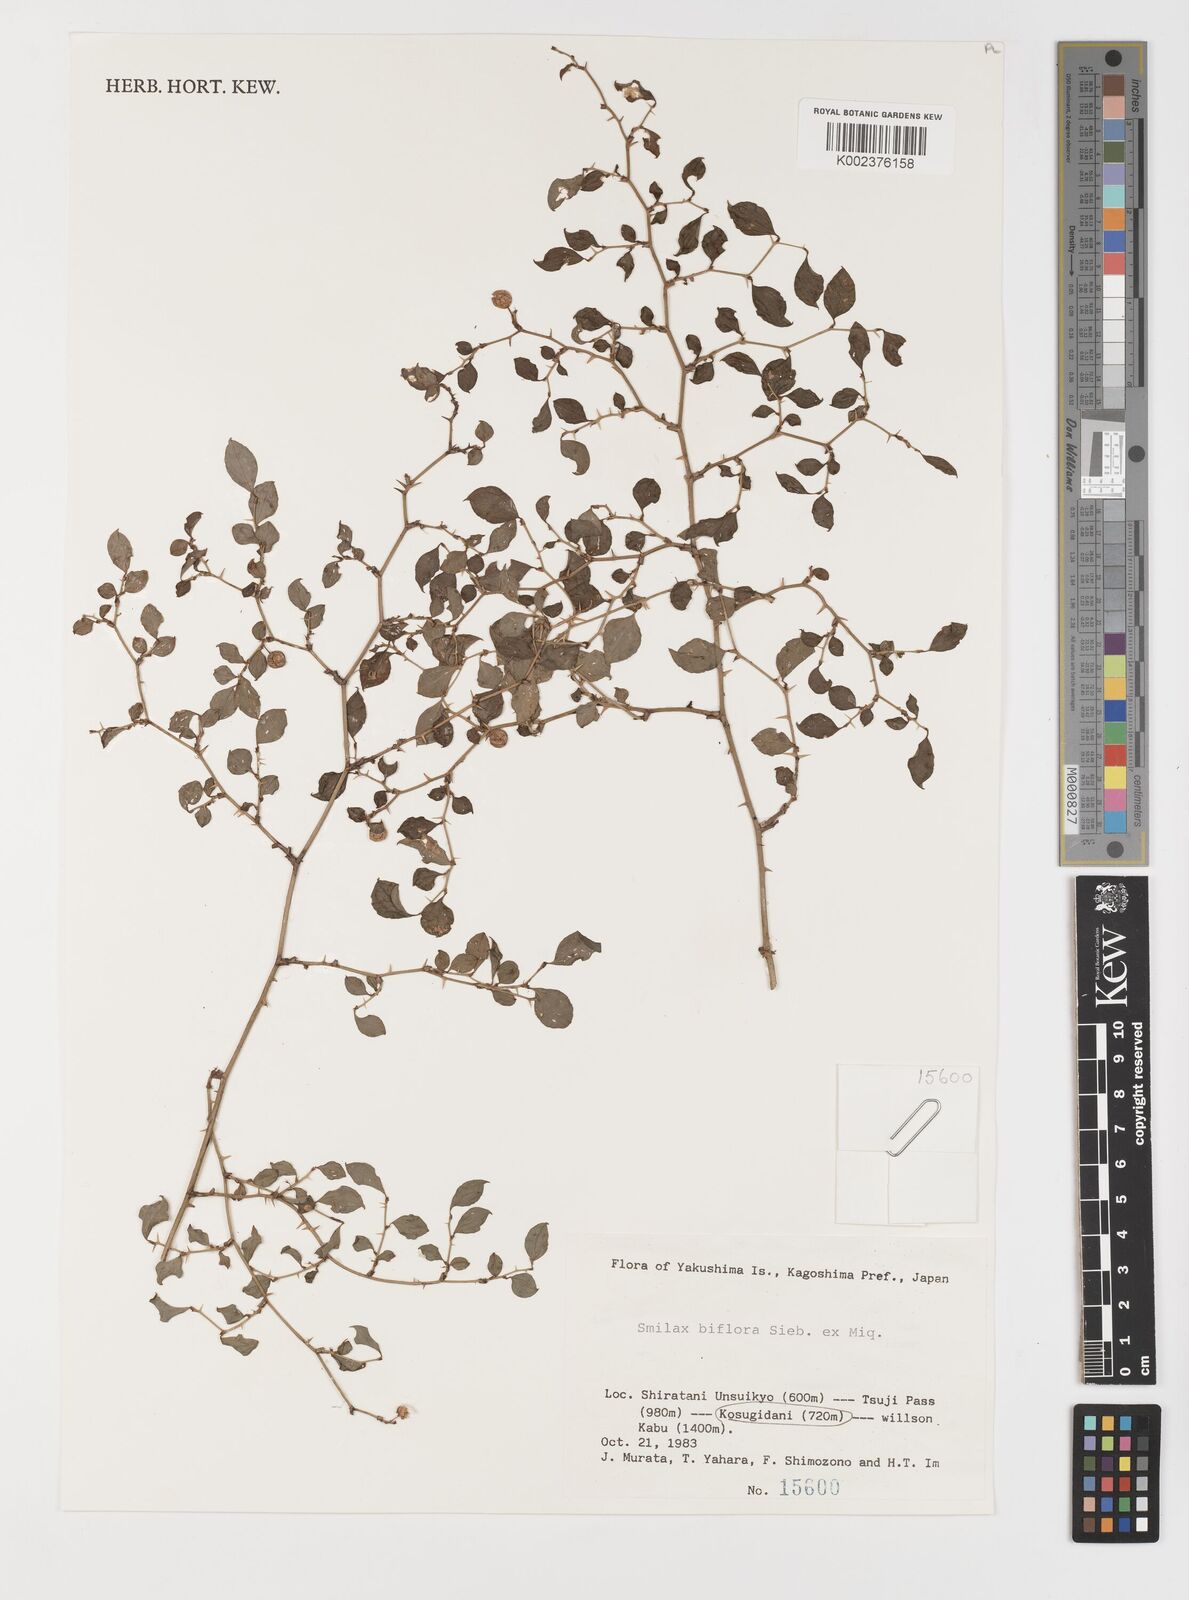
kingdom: Plantae
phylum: Tracheophyta
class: Liliopsida
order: Liliales
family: Smilacaceae
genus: Smilax
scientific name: Smilax biflora
